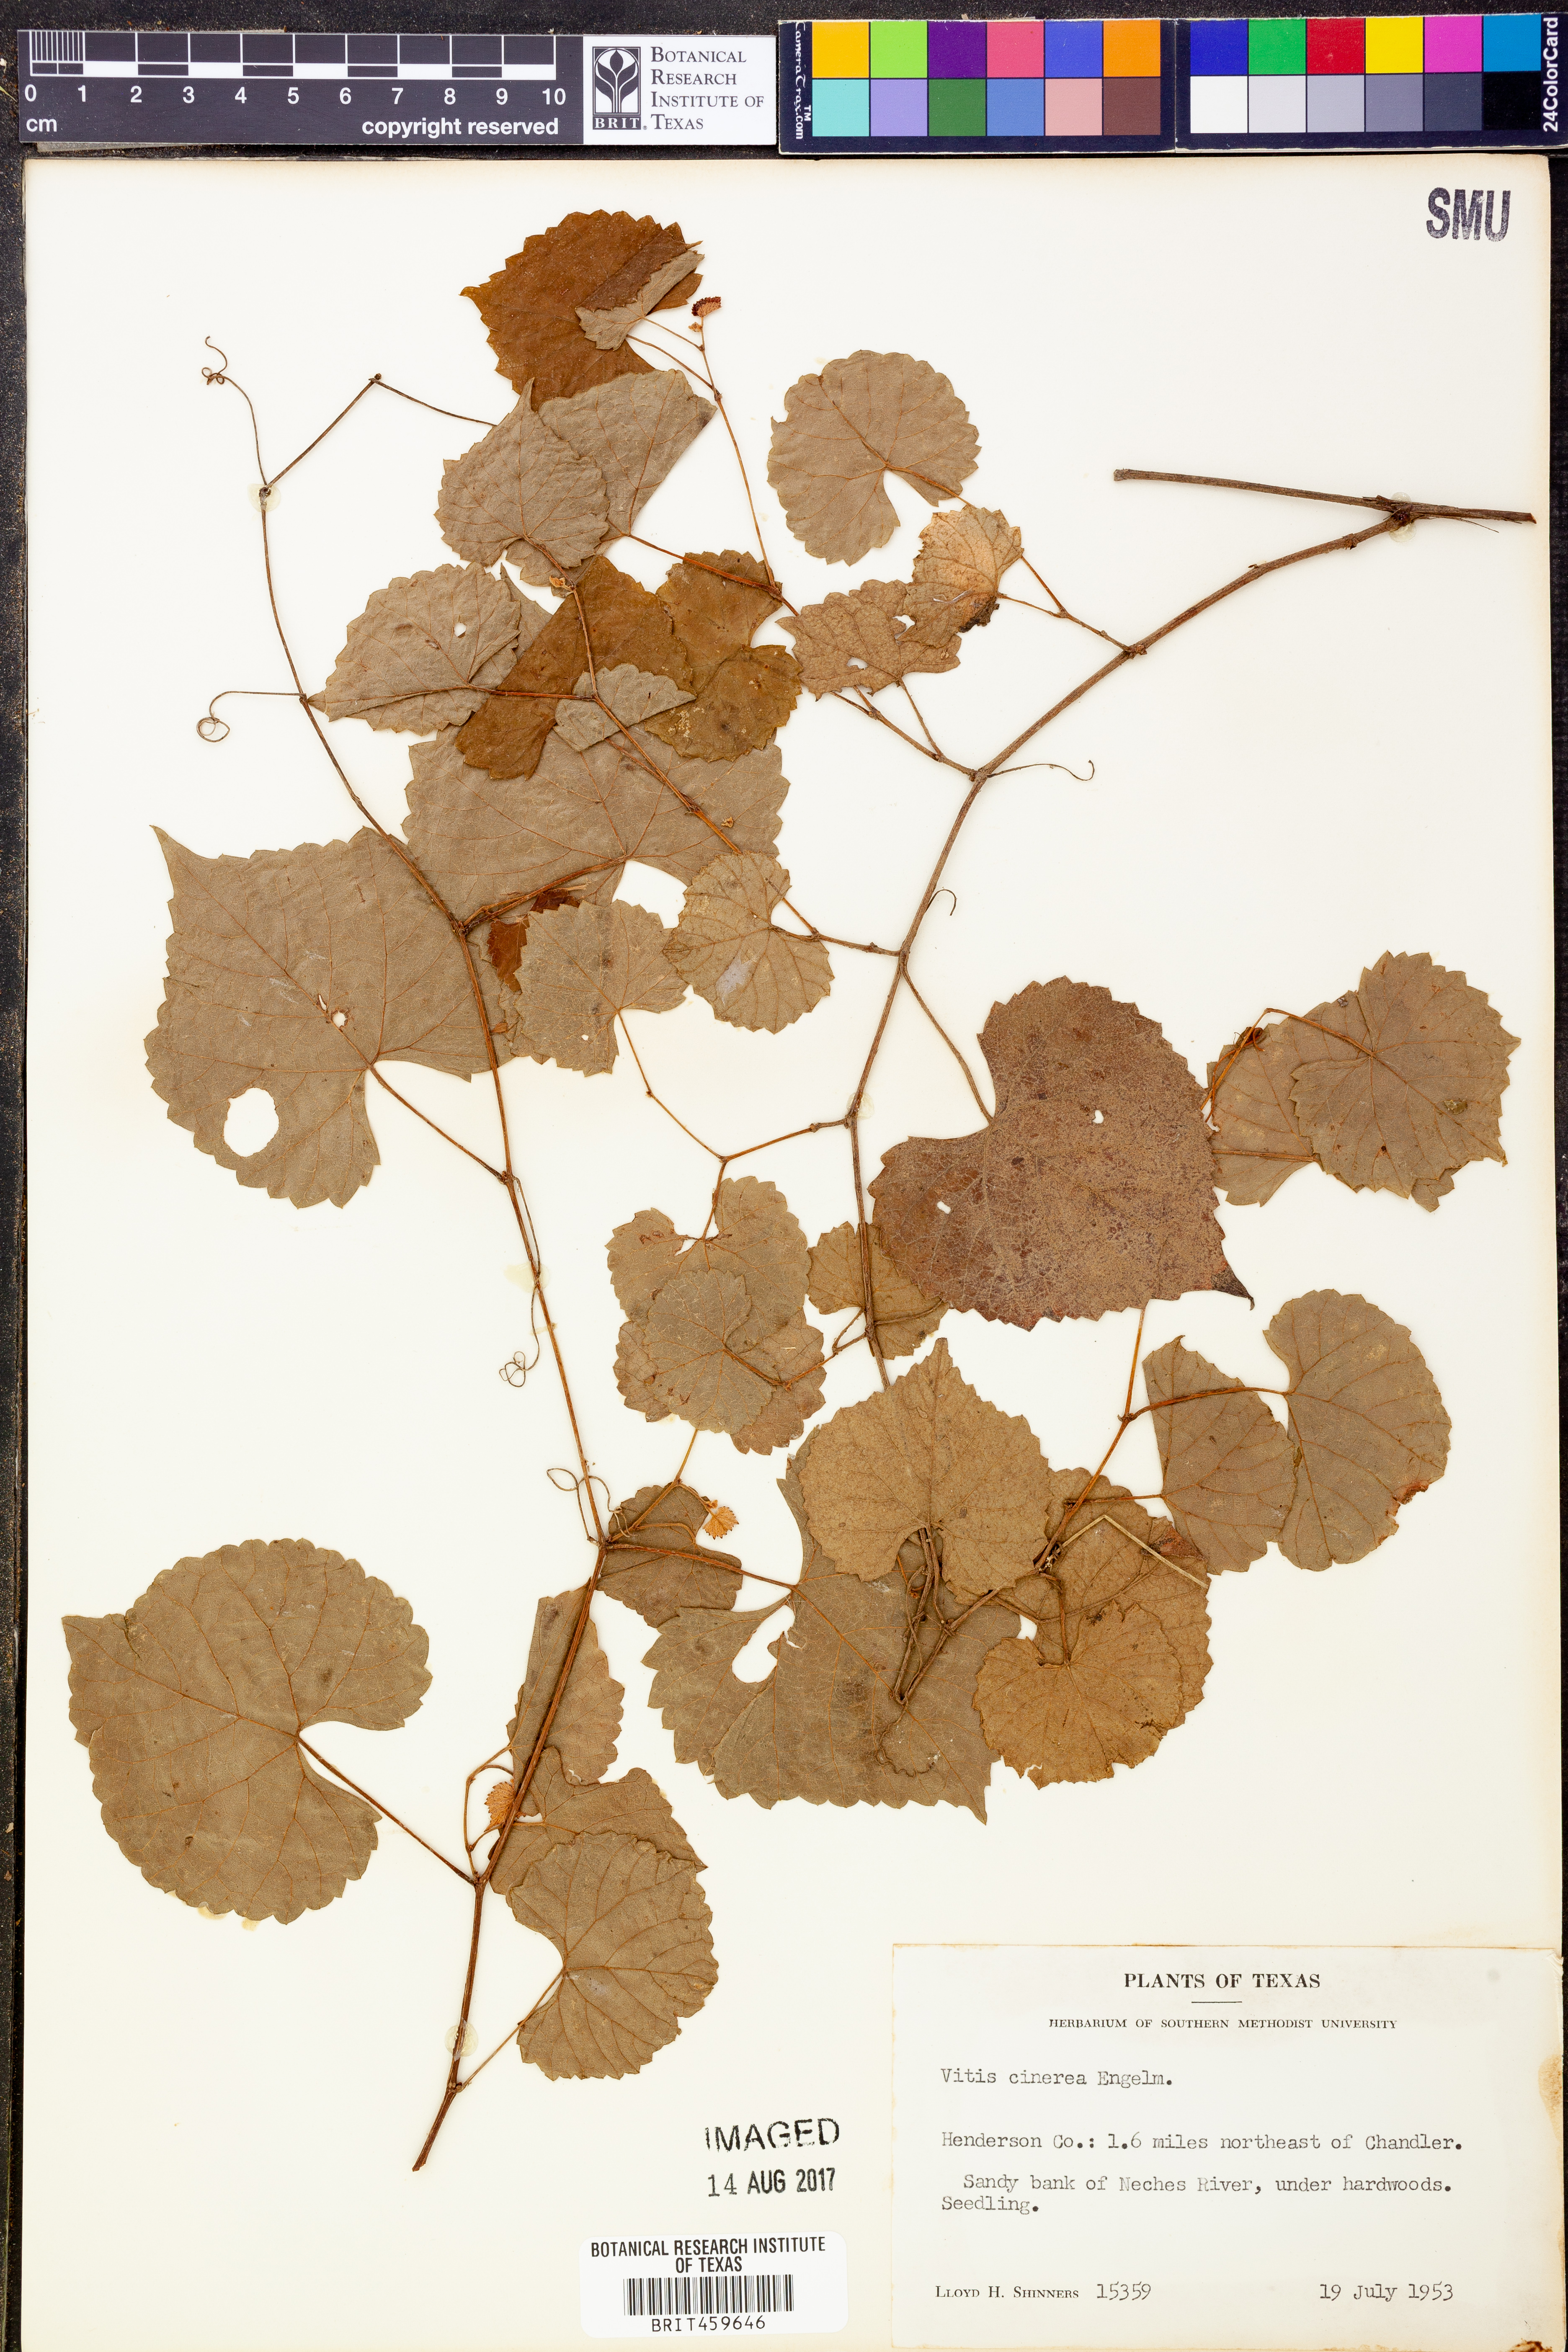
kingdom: Plantae
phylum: Tracheophyta
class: Magnoliopsida
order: Vitales
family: Vitaceae
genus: Vitis
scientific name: Vitis cinerea
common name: Ashy grape
